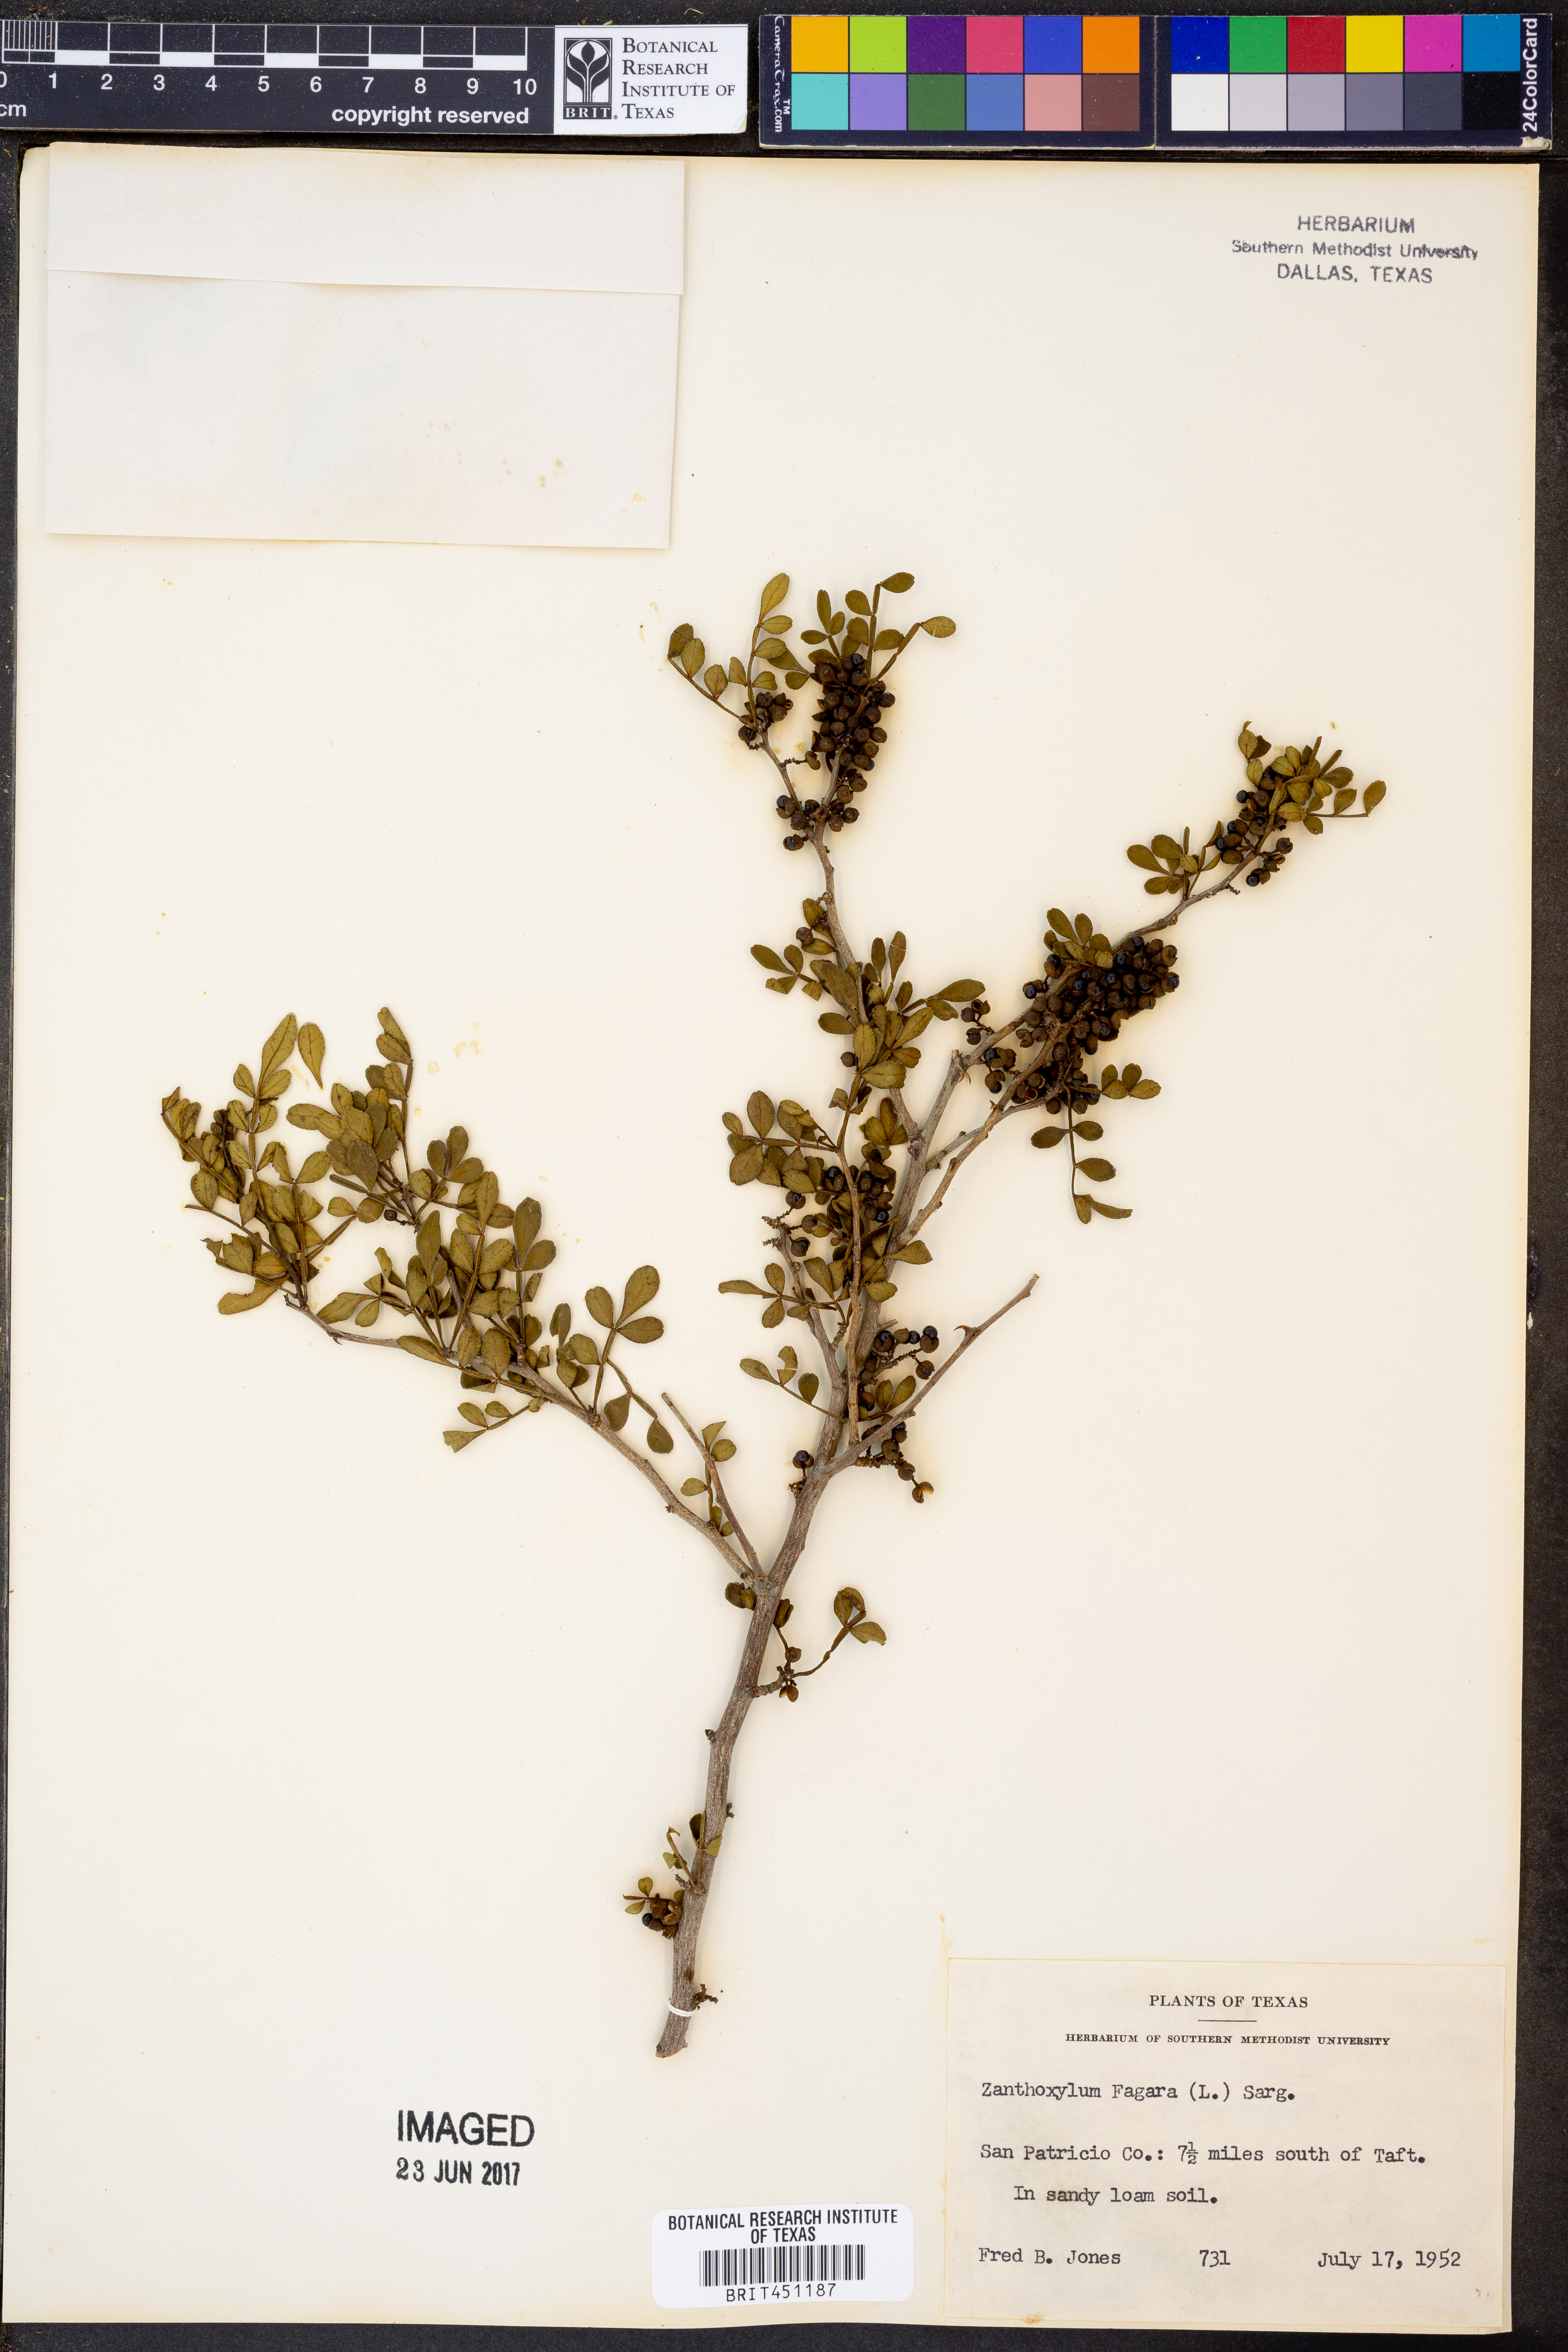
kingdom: Plantae
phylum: Tracheophyta
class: Magnoliopsida
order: Sapindales
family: Rutaceae
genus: Zanthoxylum
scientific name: Zanthoxylum fagara
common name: Lime prickly-ash
